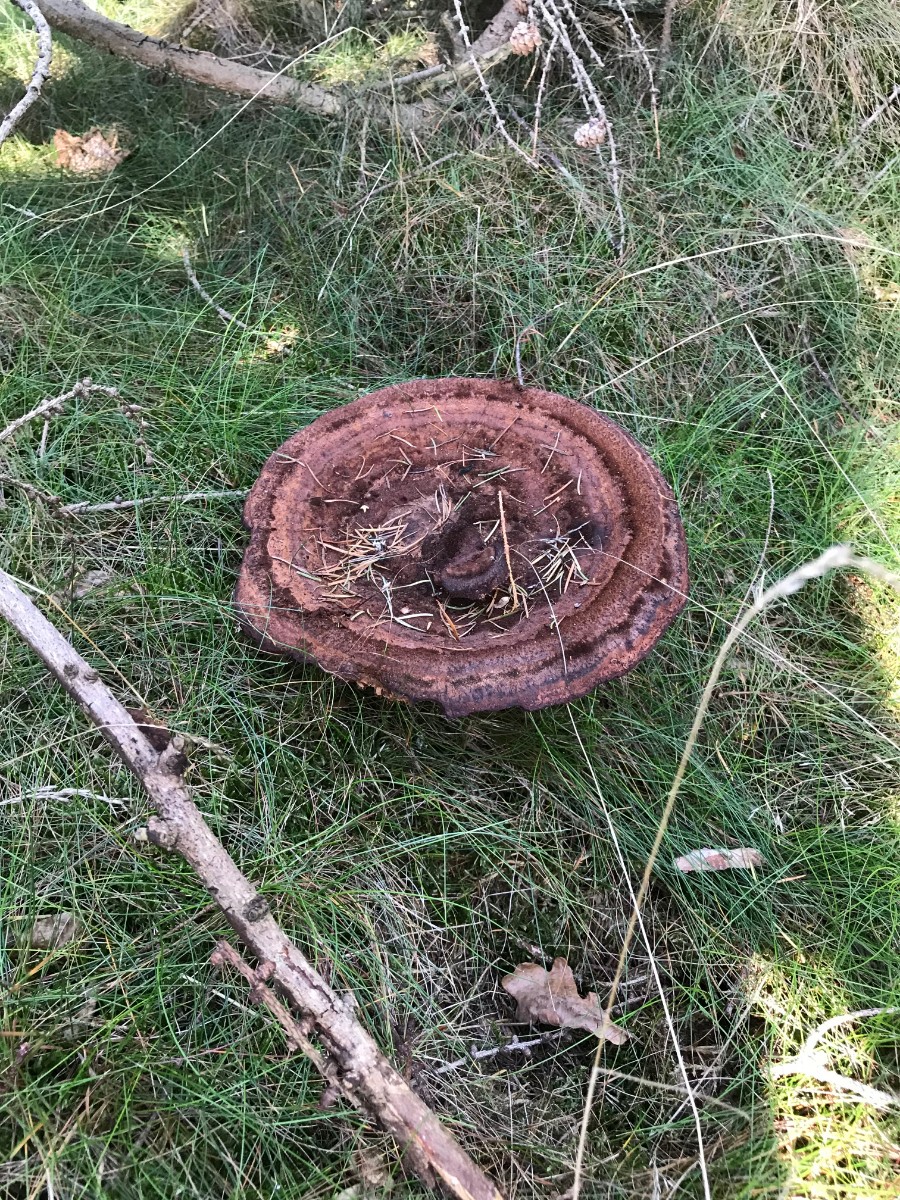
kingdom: Fungi
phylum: Basidiomycota
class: Agaricomycetes
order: Polyporales
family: Laetiporaceae
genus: Phaeolus
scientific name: Phaeolus schweinitzii
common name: brunporesvamp
